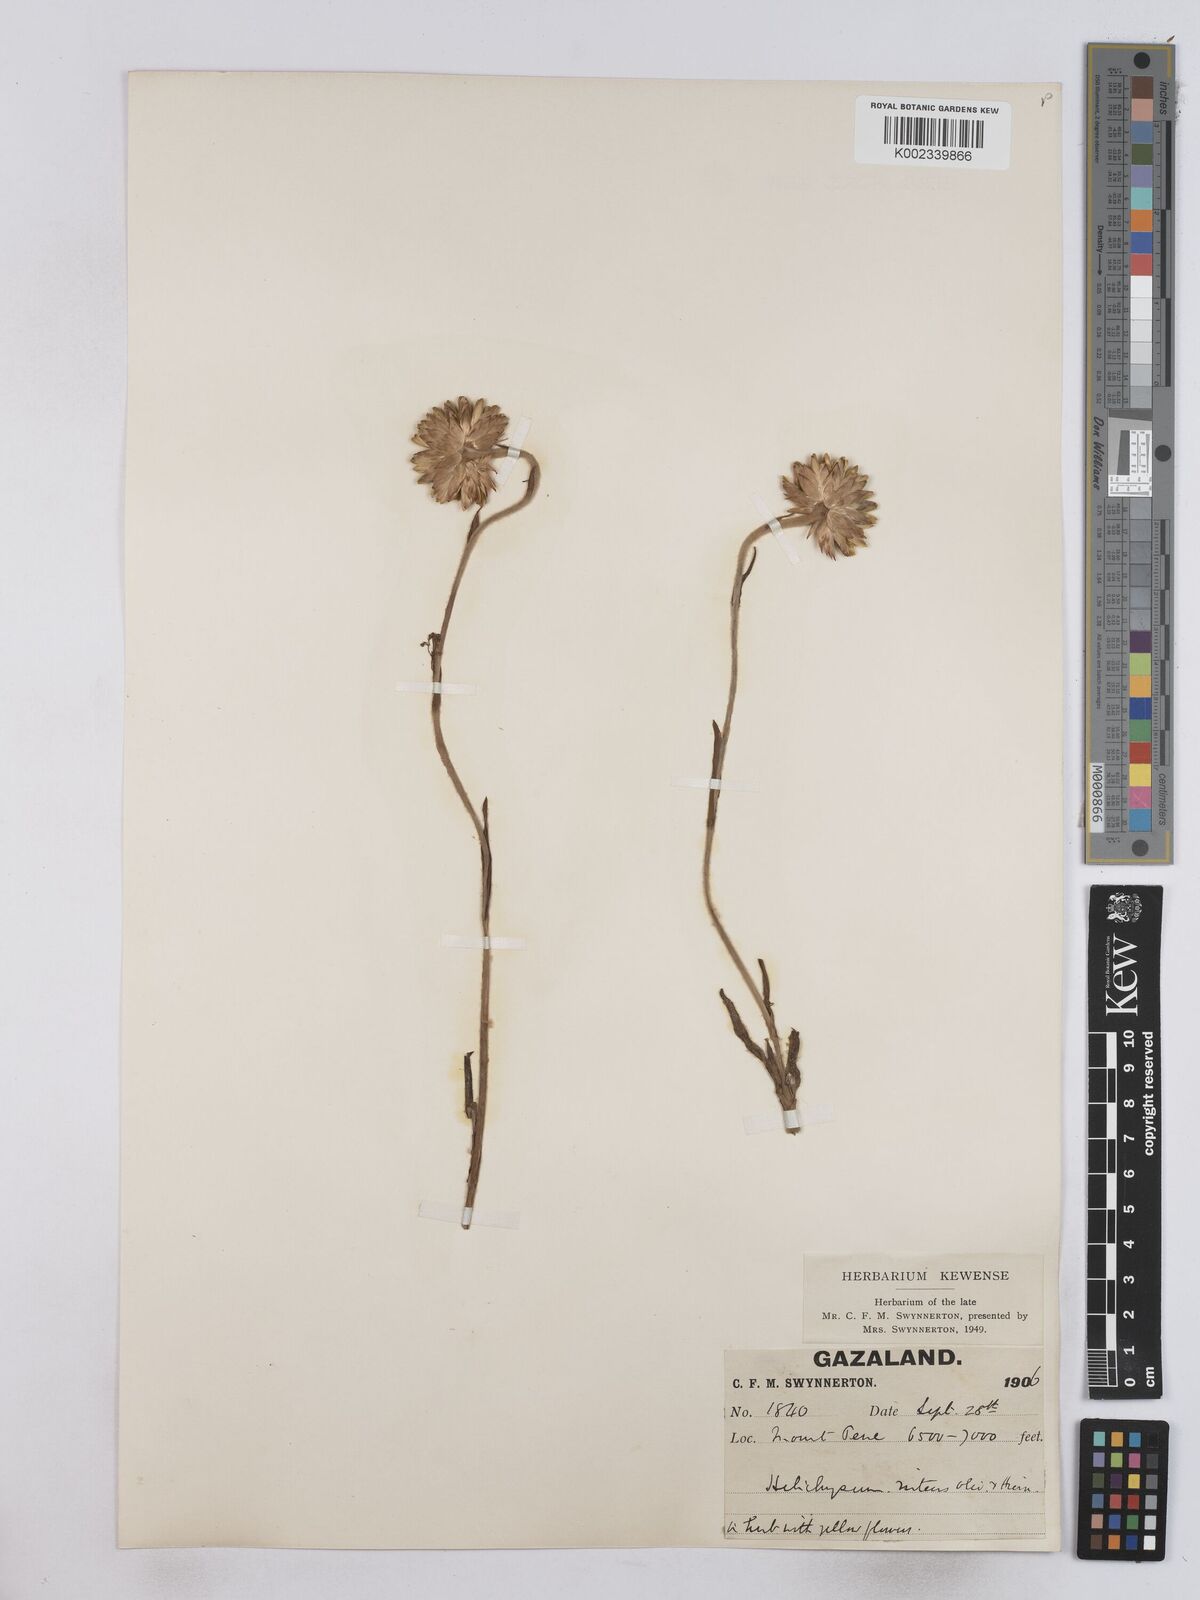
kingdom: Plantae
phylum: Tracheophyta
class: Magnoliopsida
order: Asterales
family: Asteraceae
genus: Helichrysum
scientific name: Helichrysum nitens
